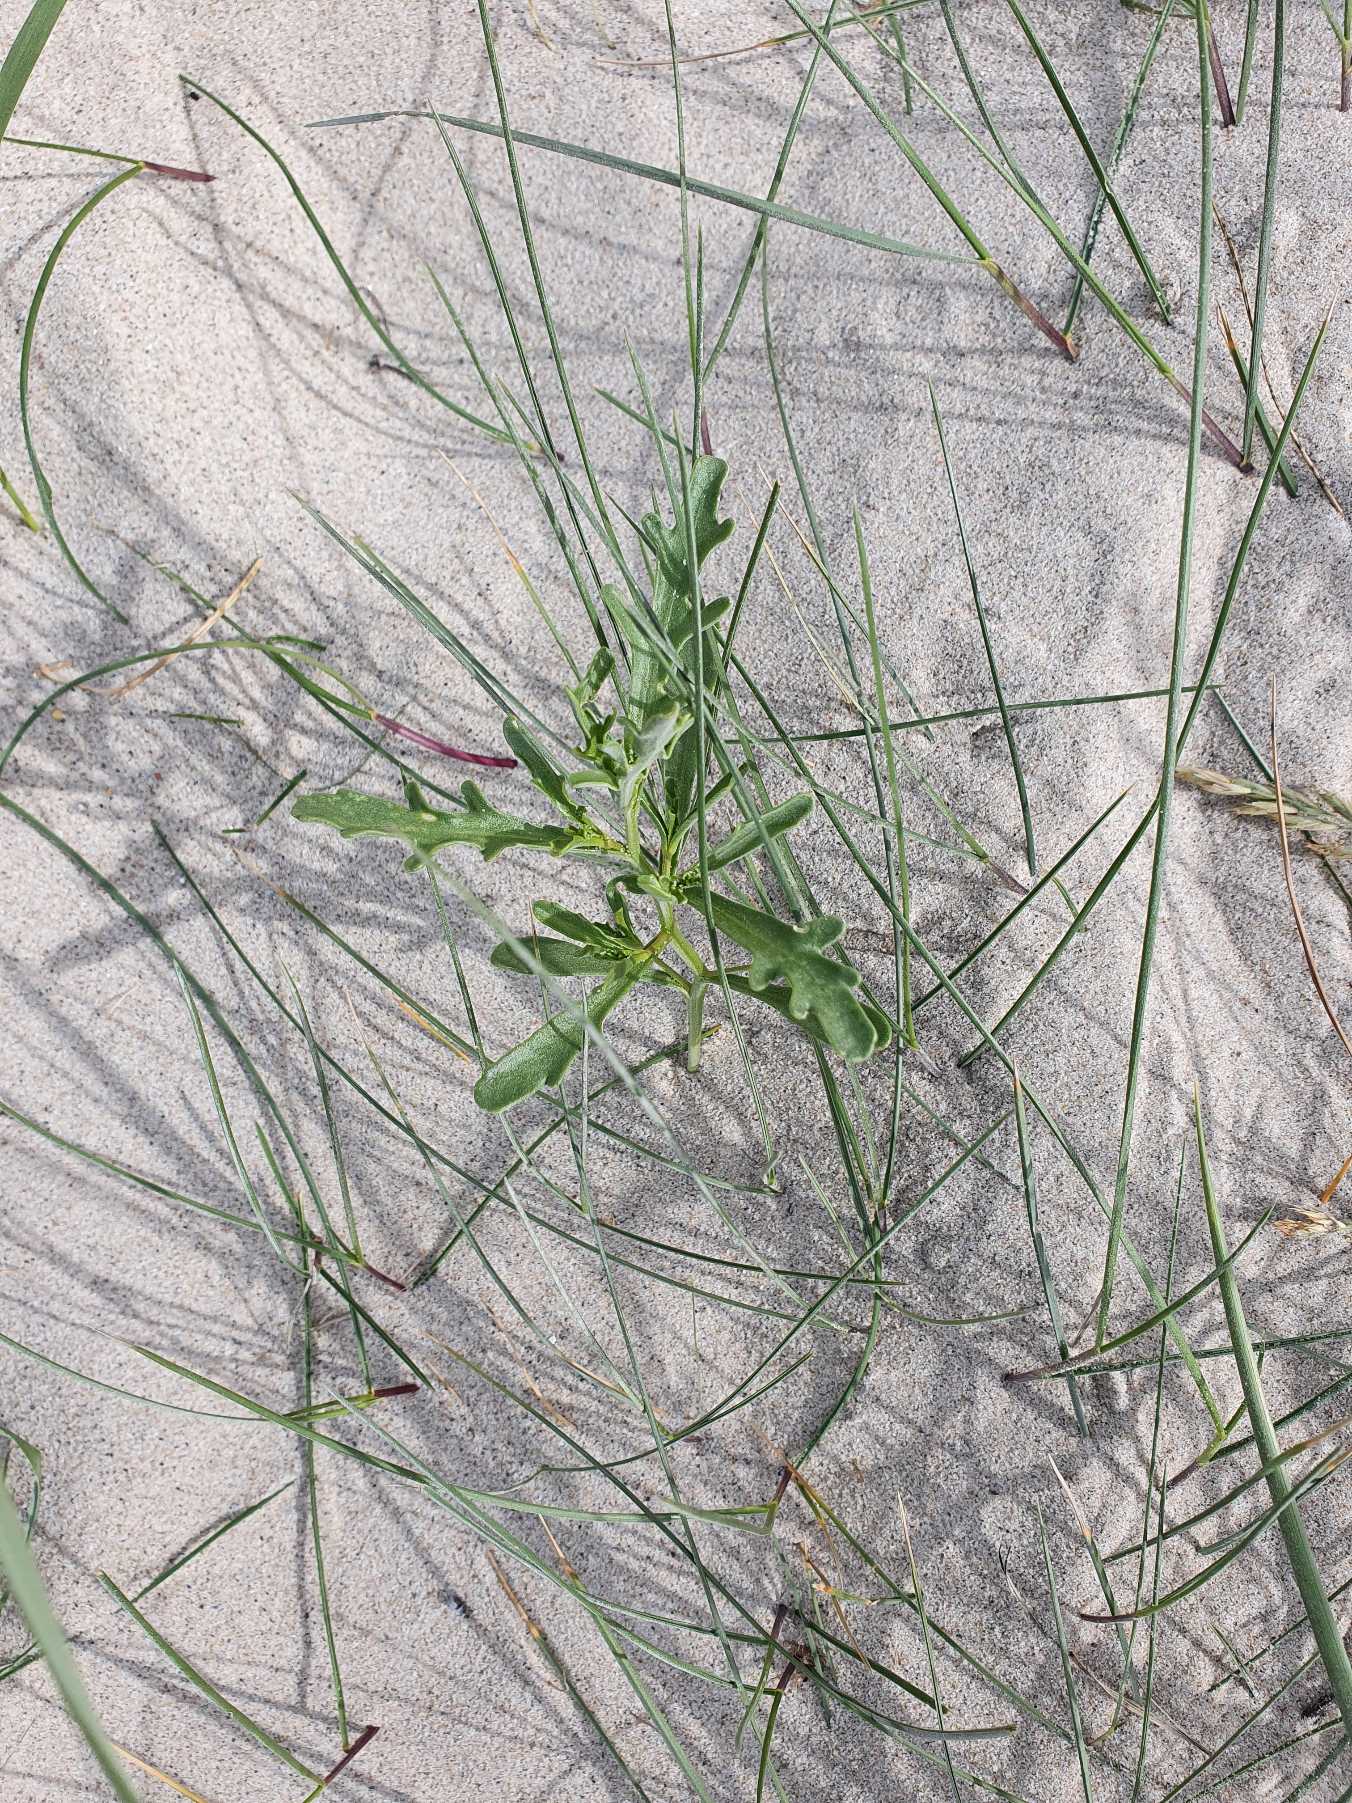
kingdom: Plantae
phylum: Tracheophyta
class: Magnoliopsida
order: Brassicales
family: Brassicaceae
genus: Cakile
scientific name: Cakile maritima
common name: Strandsennep
